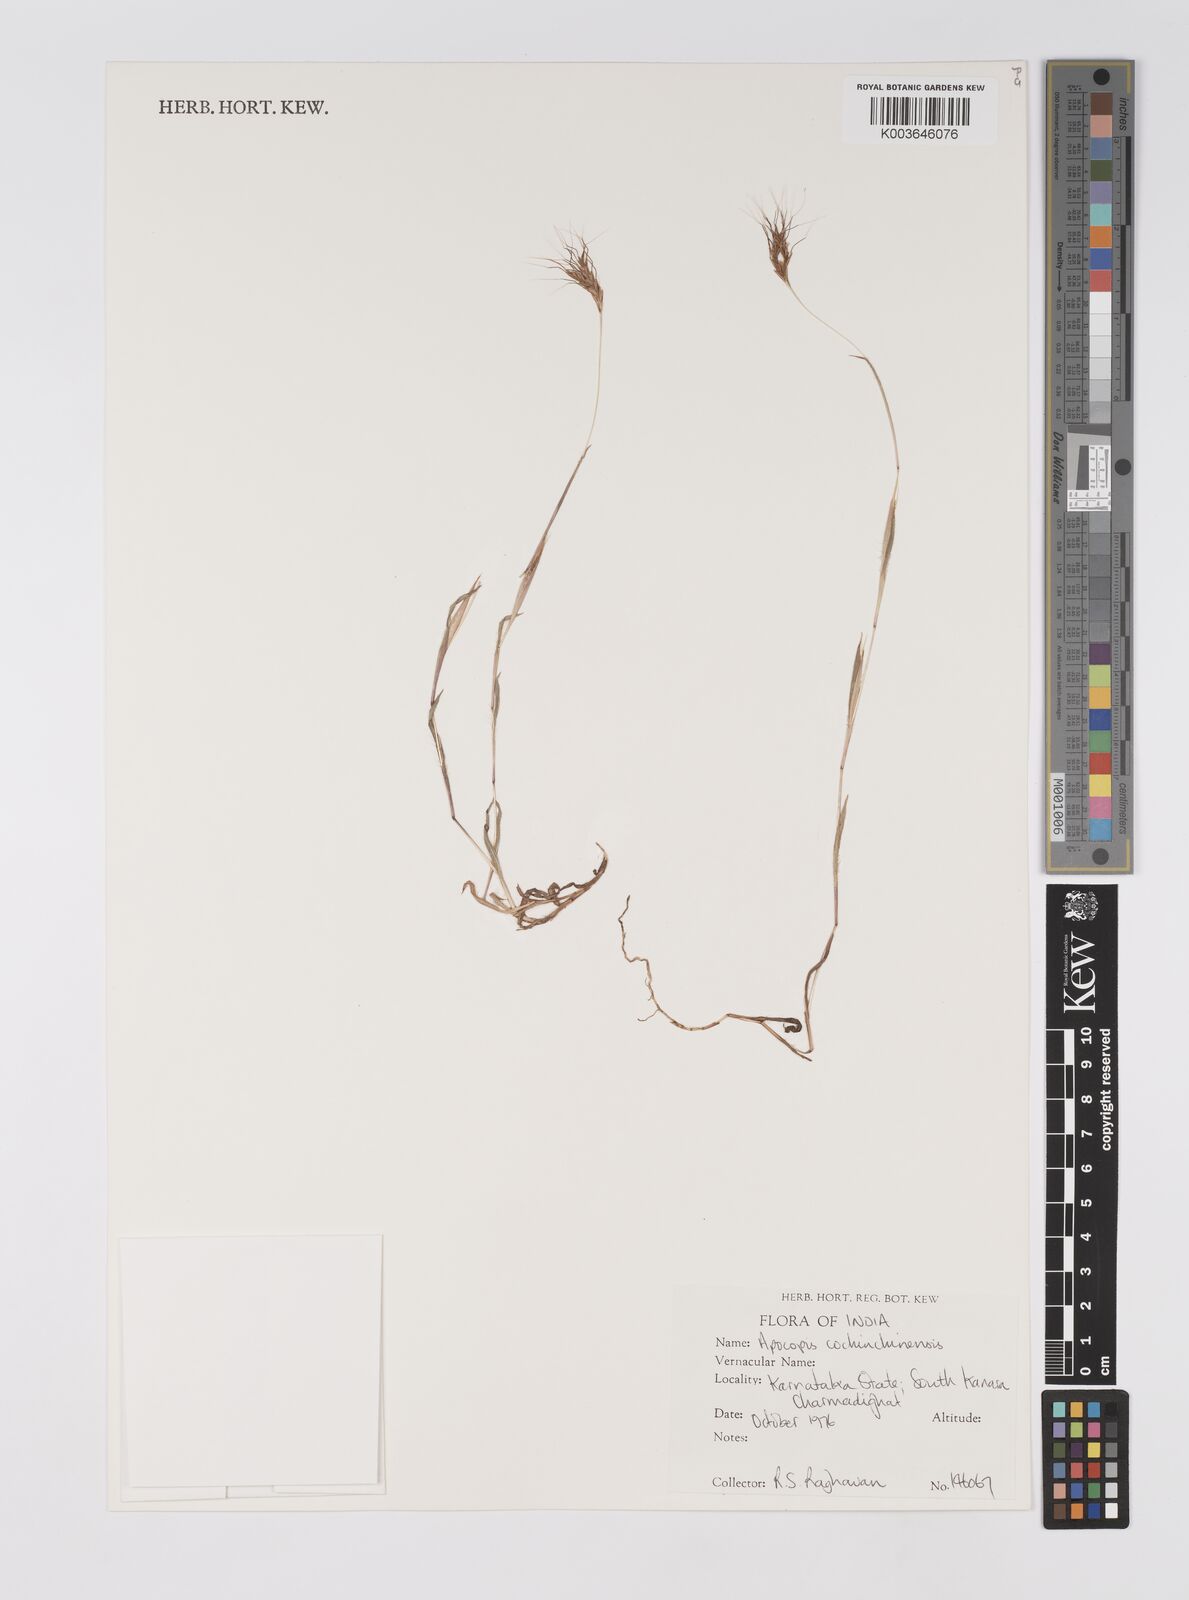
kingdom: Plantae
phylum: Tracheophyta
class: Liliopsida
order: Poales
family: Poaceae
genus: Apocopis
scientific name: Apocopis cochinchinensis
